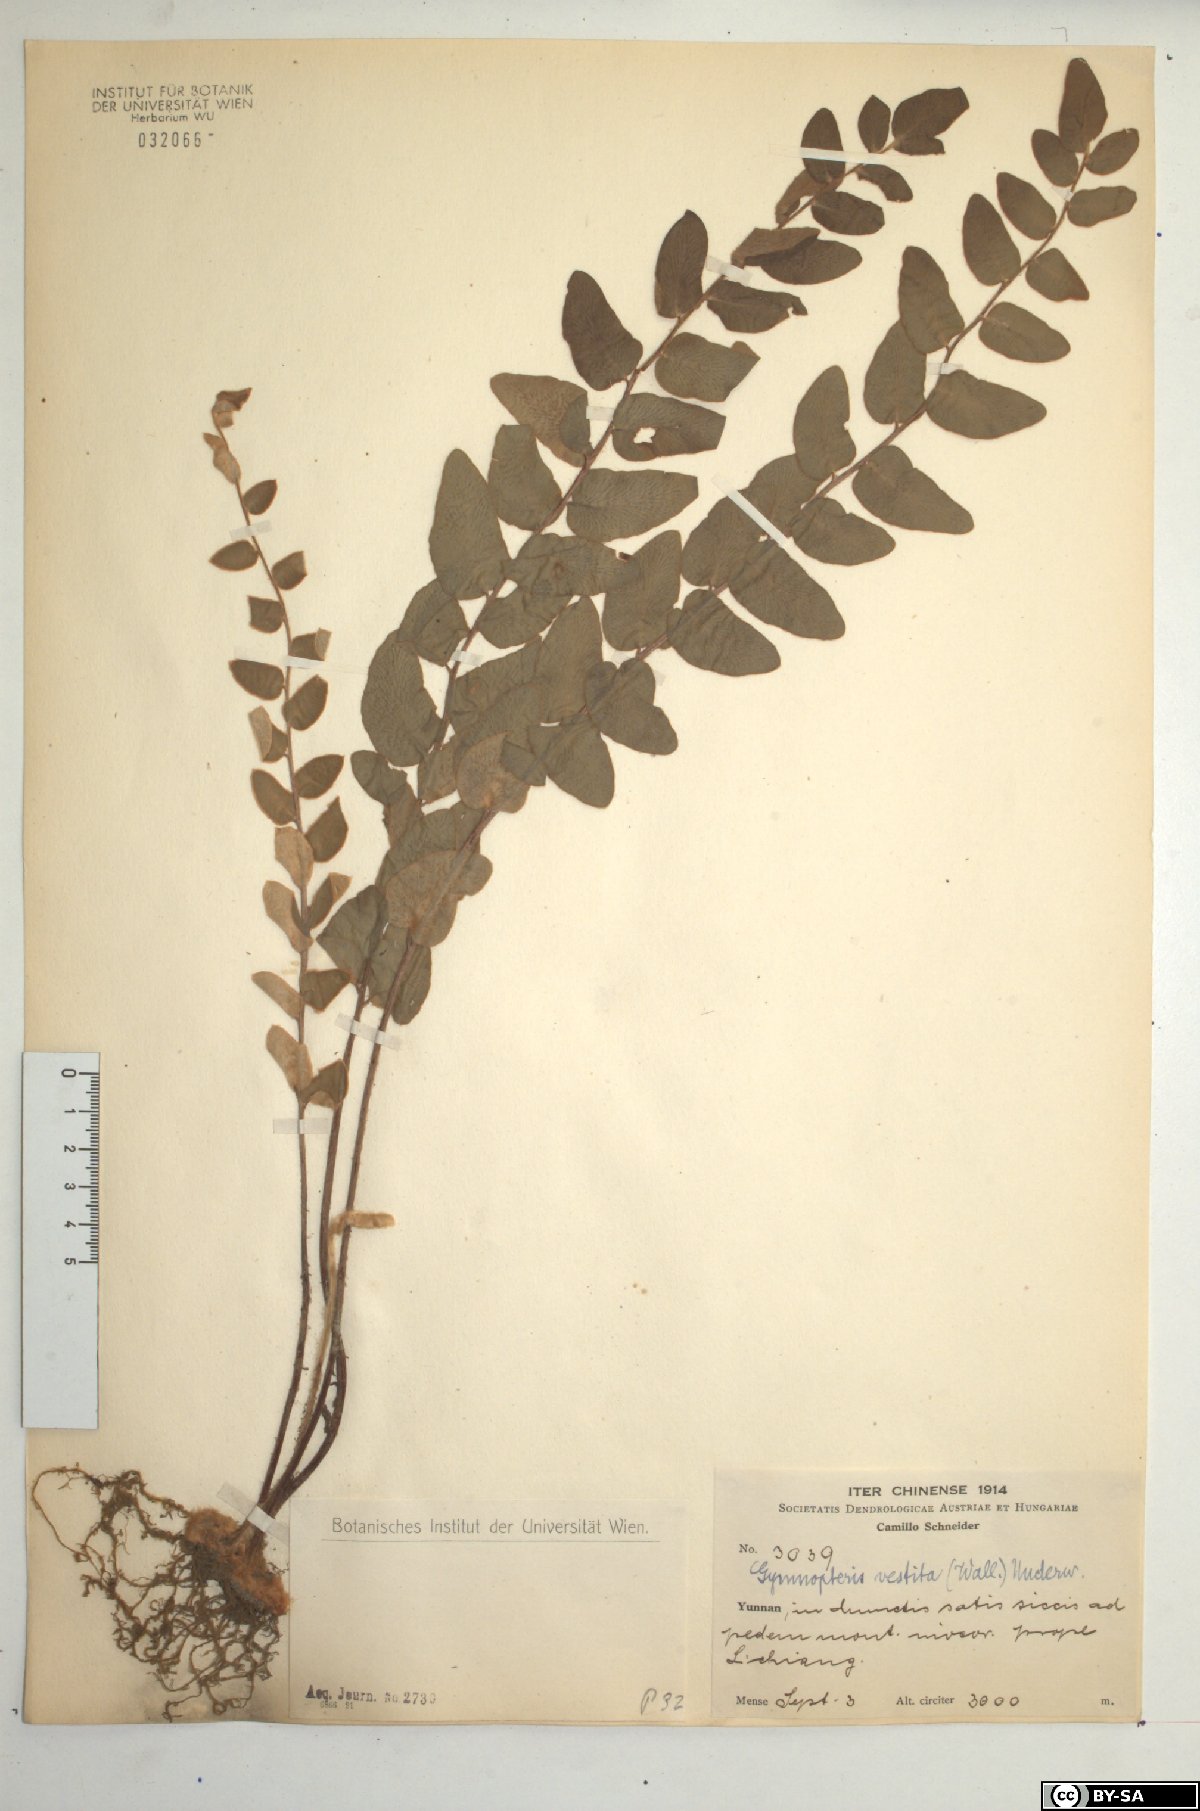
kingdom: Plantae
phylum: Tracheophyta
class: Polypodiopsida
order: Polypodiales
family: Pteridaceae
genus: Paragymnopteris
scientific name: Paragymnopteris vestita
